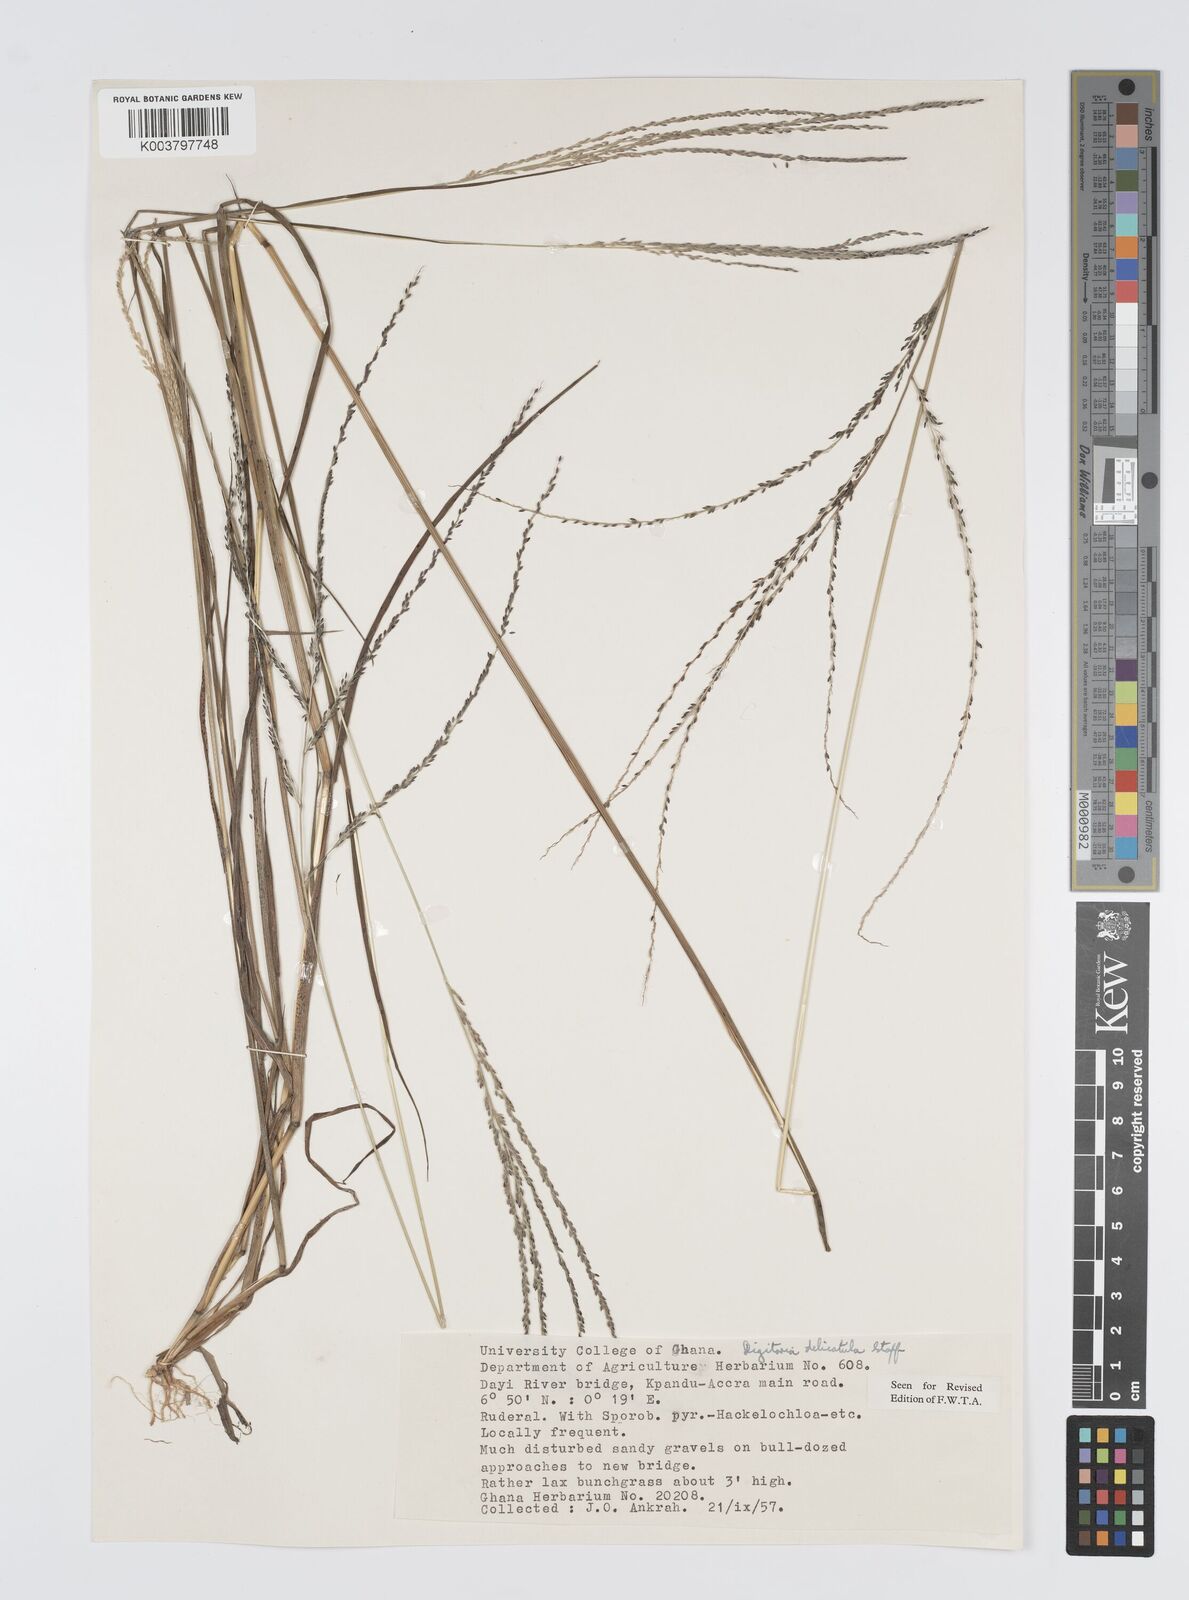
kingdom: Plantae
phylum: Tracheophyta
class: Liliopsida
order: Poales
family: Poaceae
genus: Digitaria
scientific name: Digitaria delicatula
